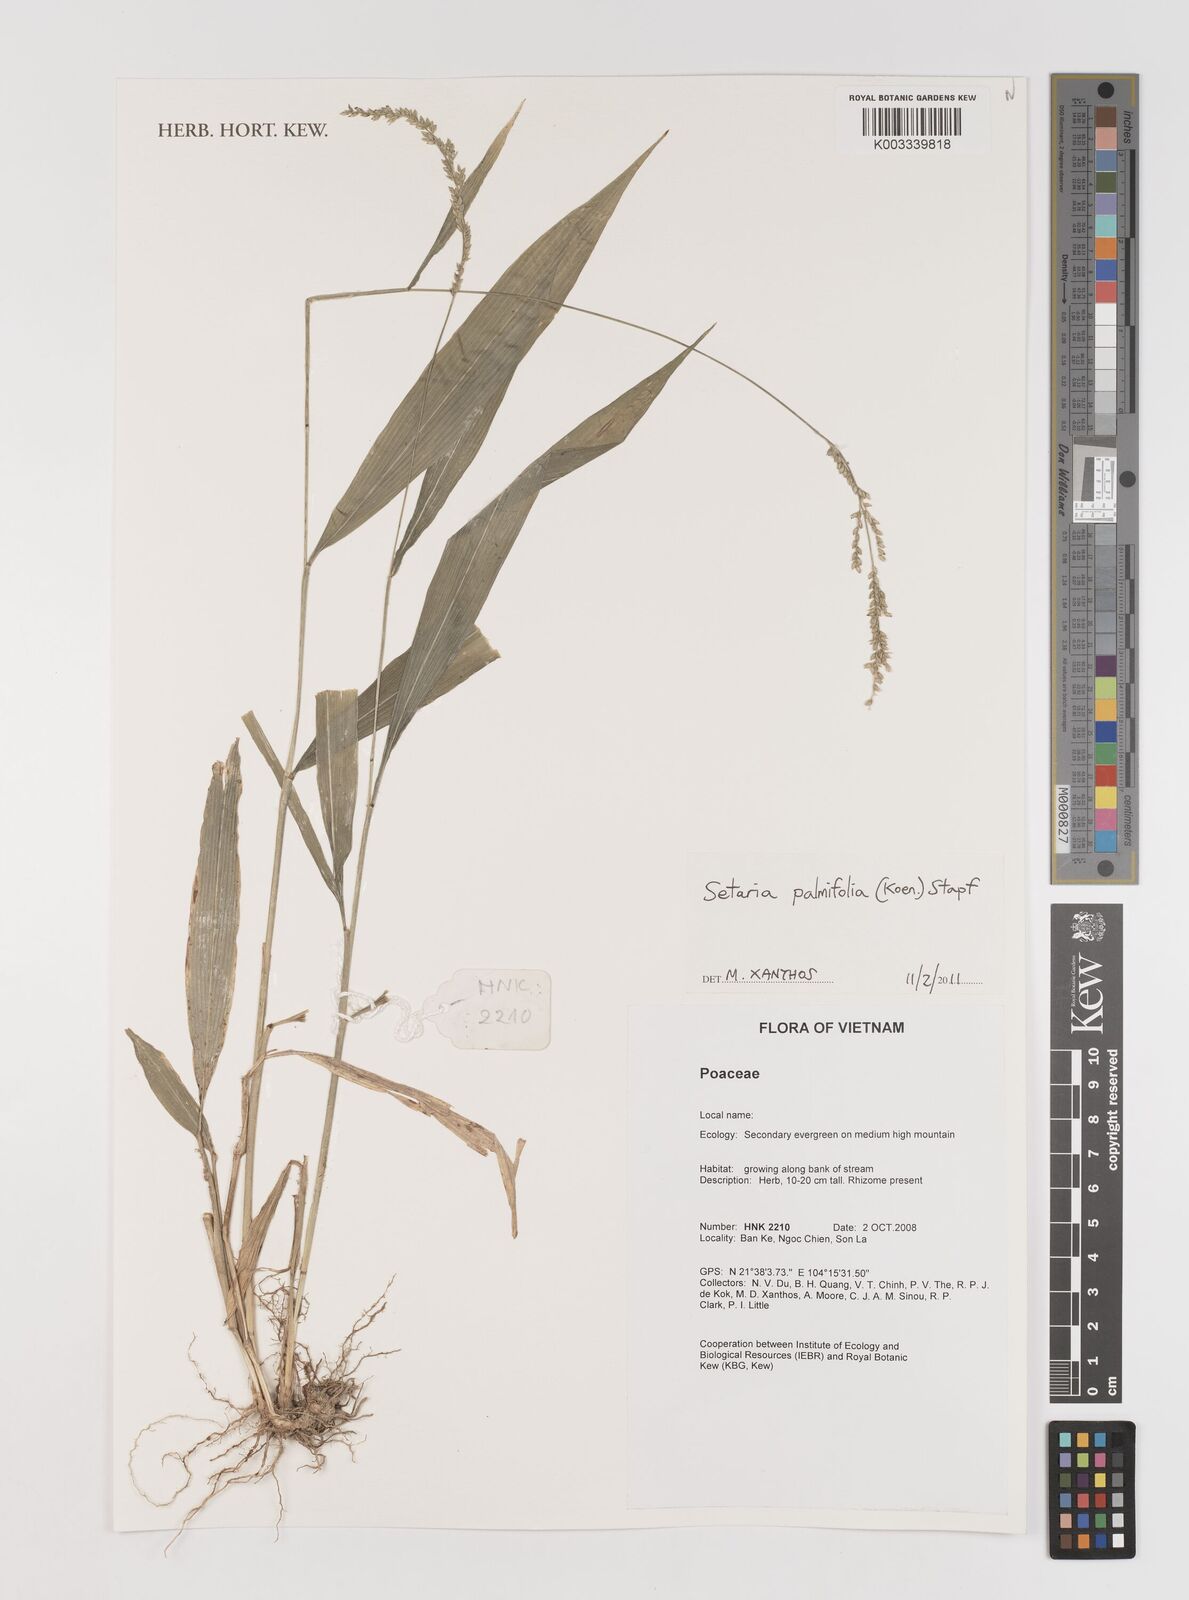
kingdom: Plantae
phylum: Tracheophyta
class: Liliopsida
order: Poales
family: Poaceae
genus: Setaria
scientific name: Setaria palmifolia
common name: Broadleaved bristlegrass
